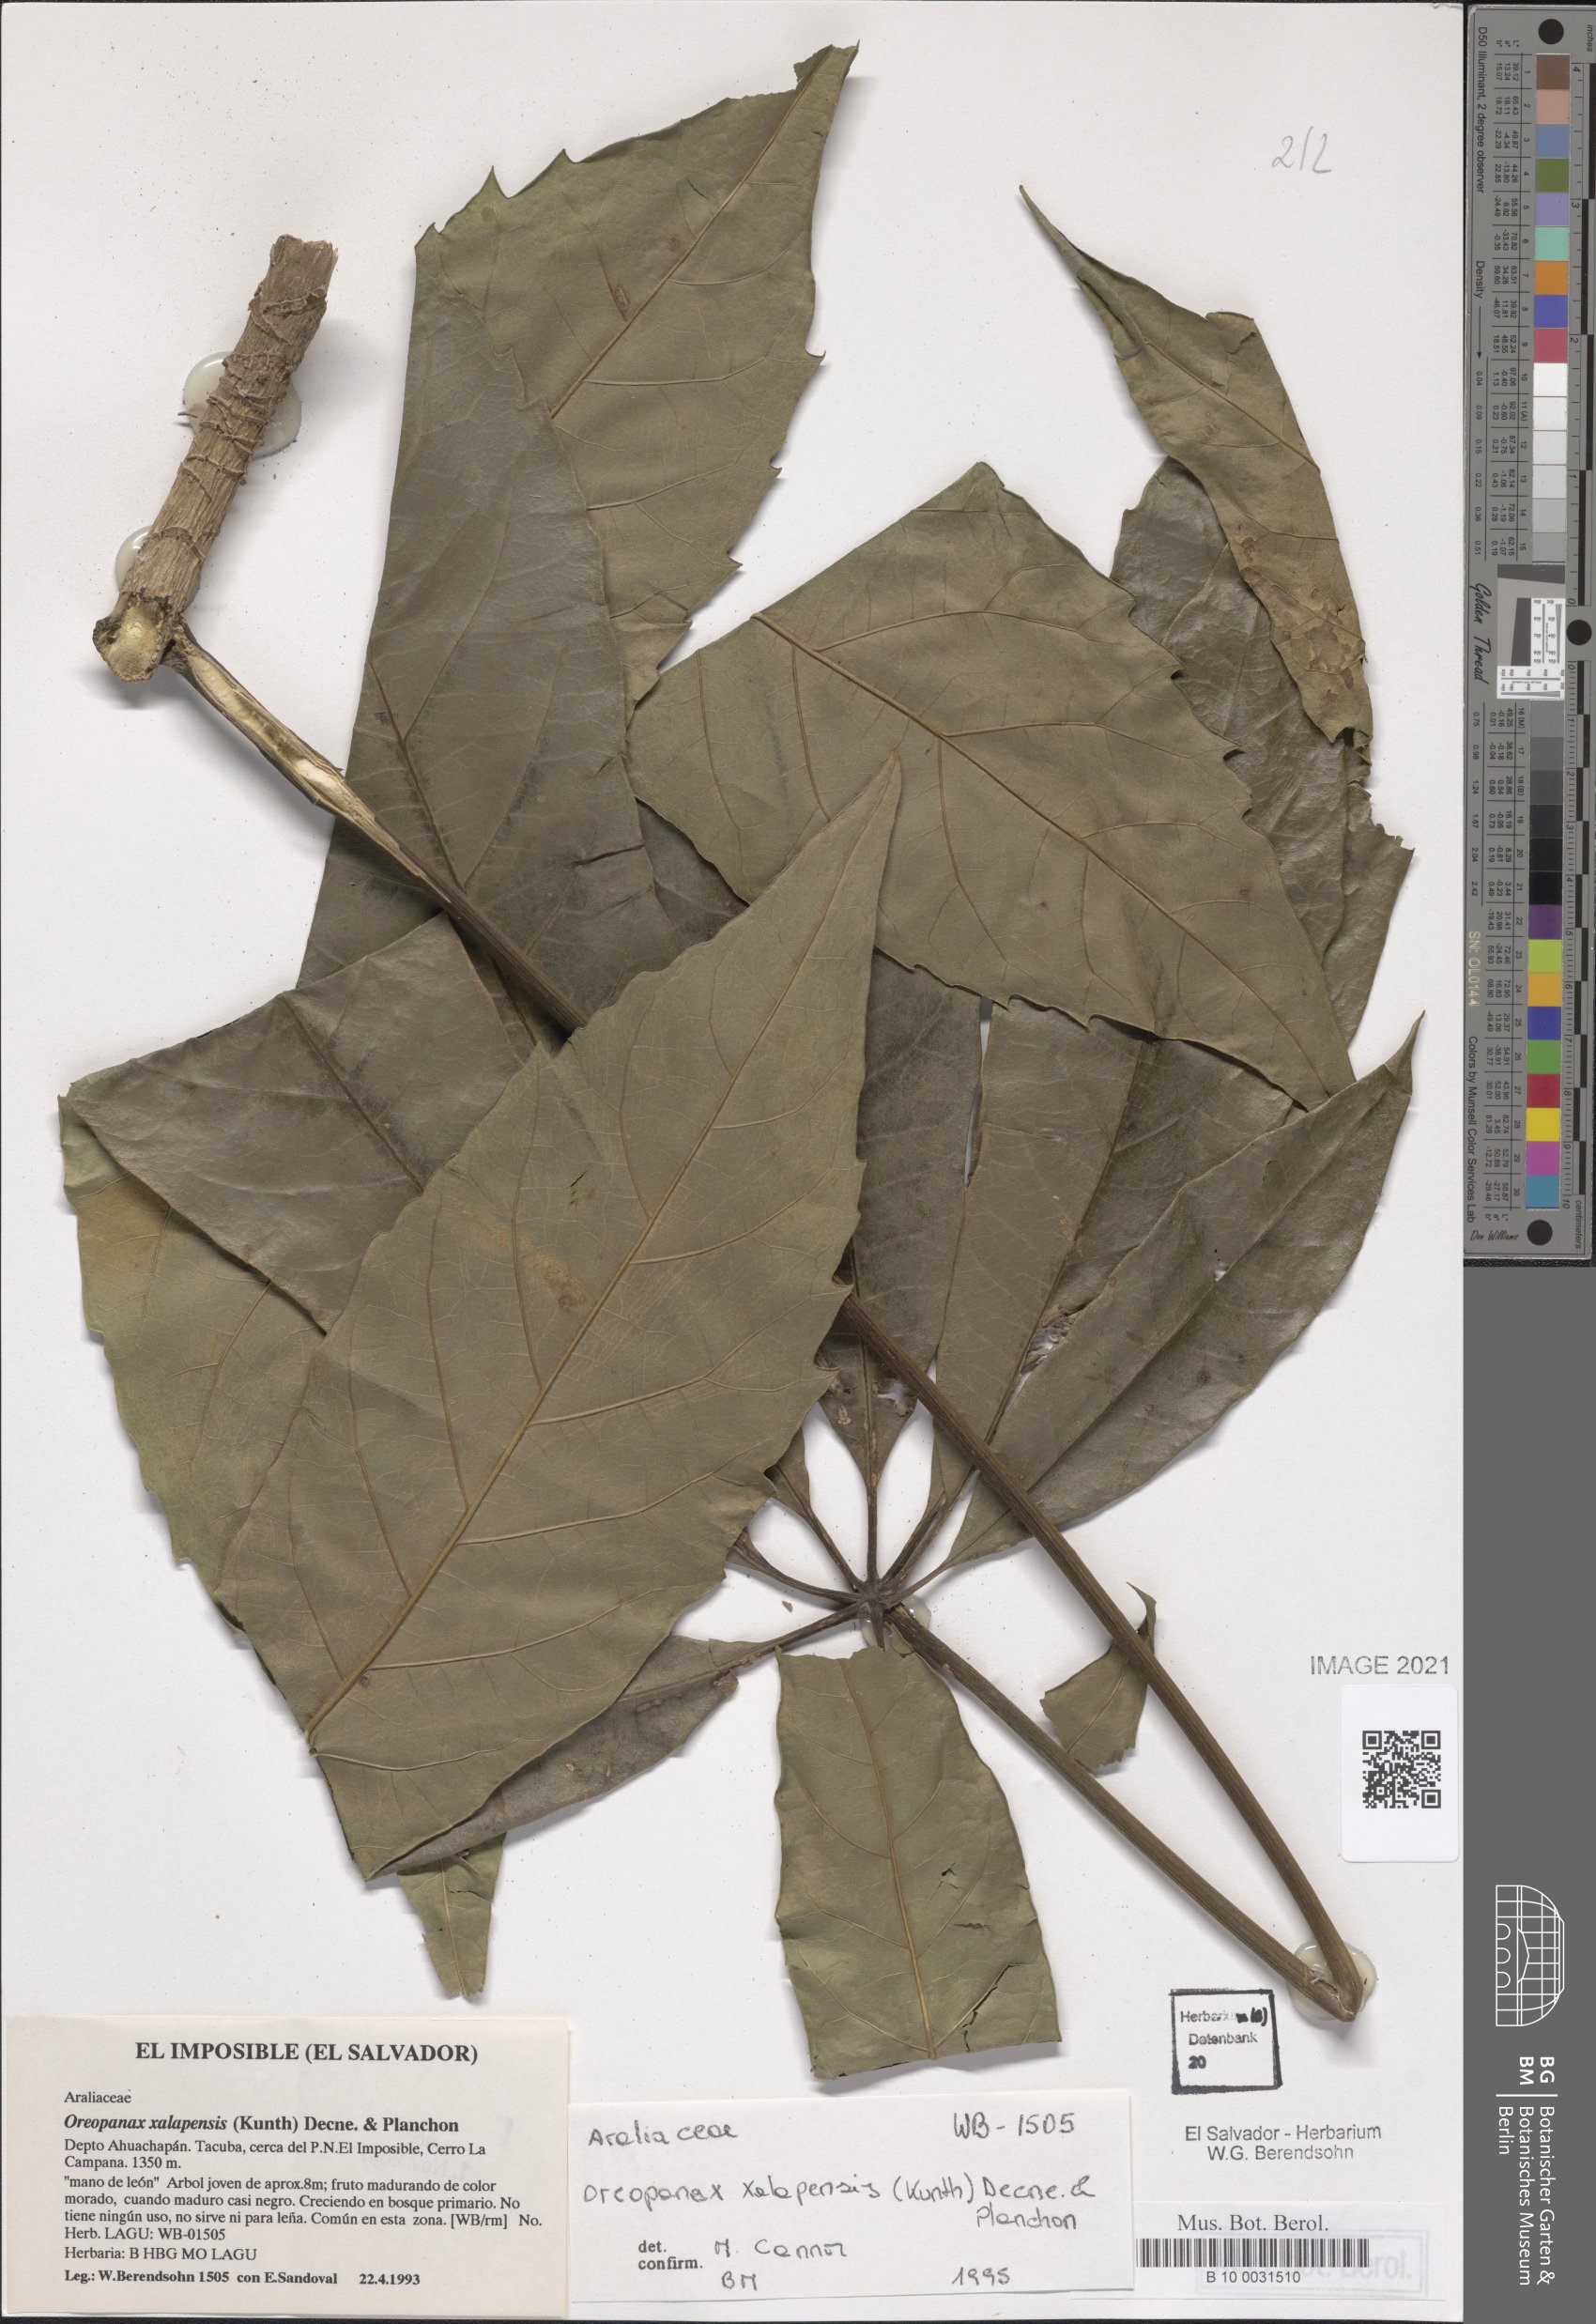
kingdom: Plantae
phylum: Tracheophyta
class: Magnoliopsida
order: Apiales
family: Araliaceae
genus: Oreopanax
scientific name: Oreopanax xalapensis
